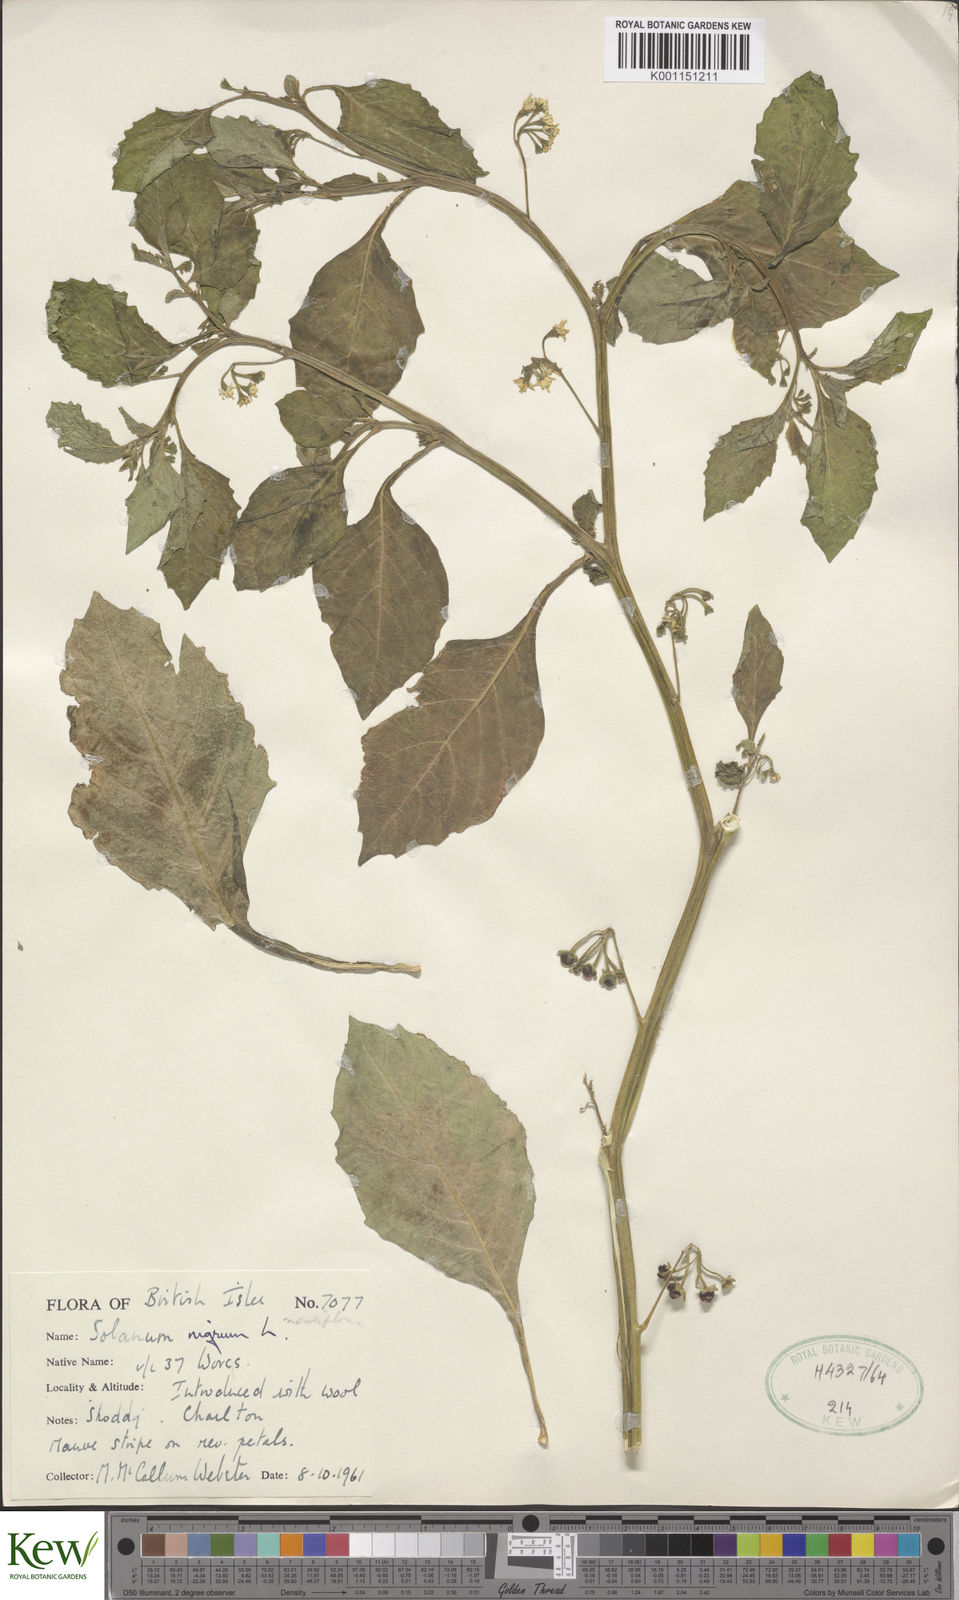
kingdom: Plantae
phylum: Tracheophyta
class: Magnoliopsida
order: Solanales
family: Solanaceae
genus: Solanum
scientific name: Solanum nigrum
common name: Black nightshade
